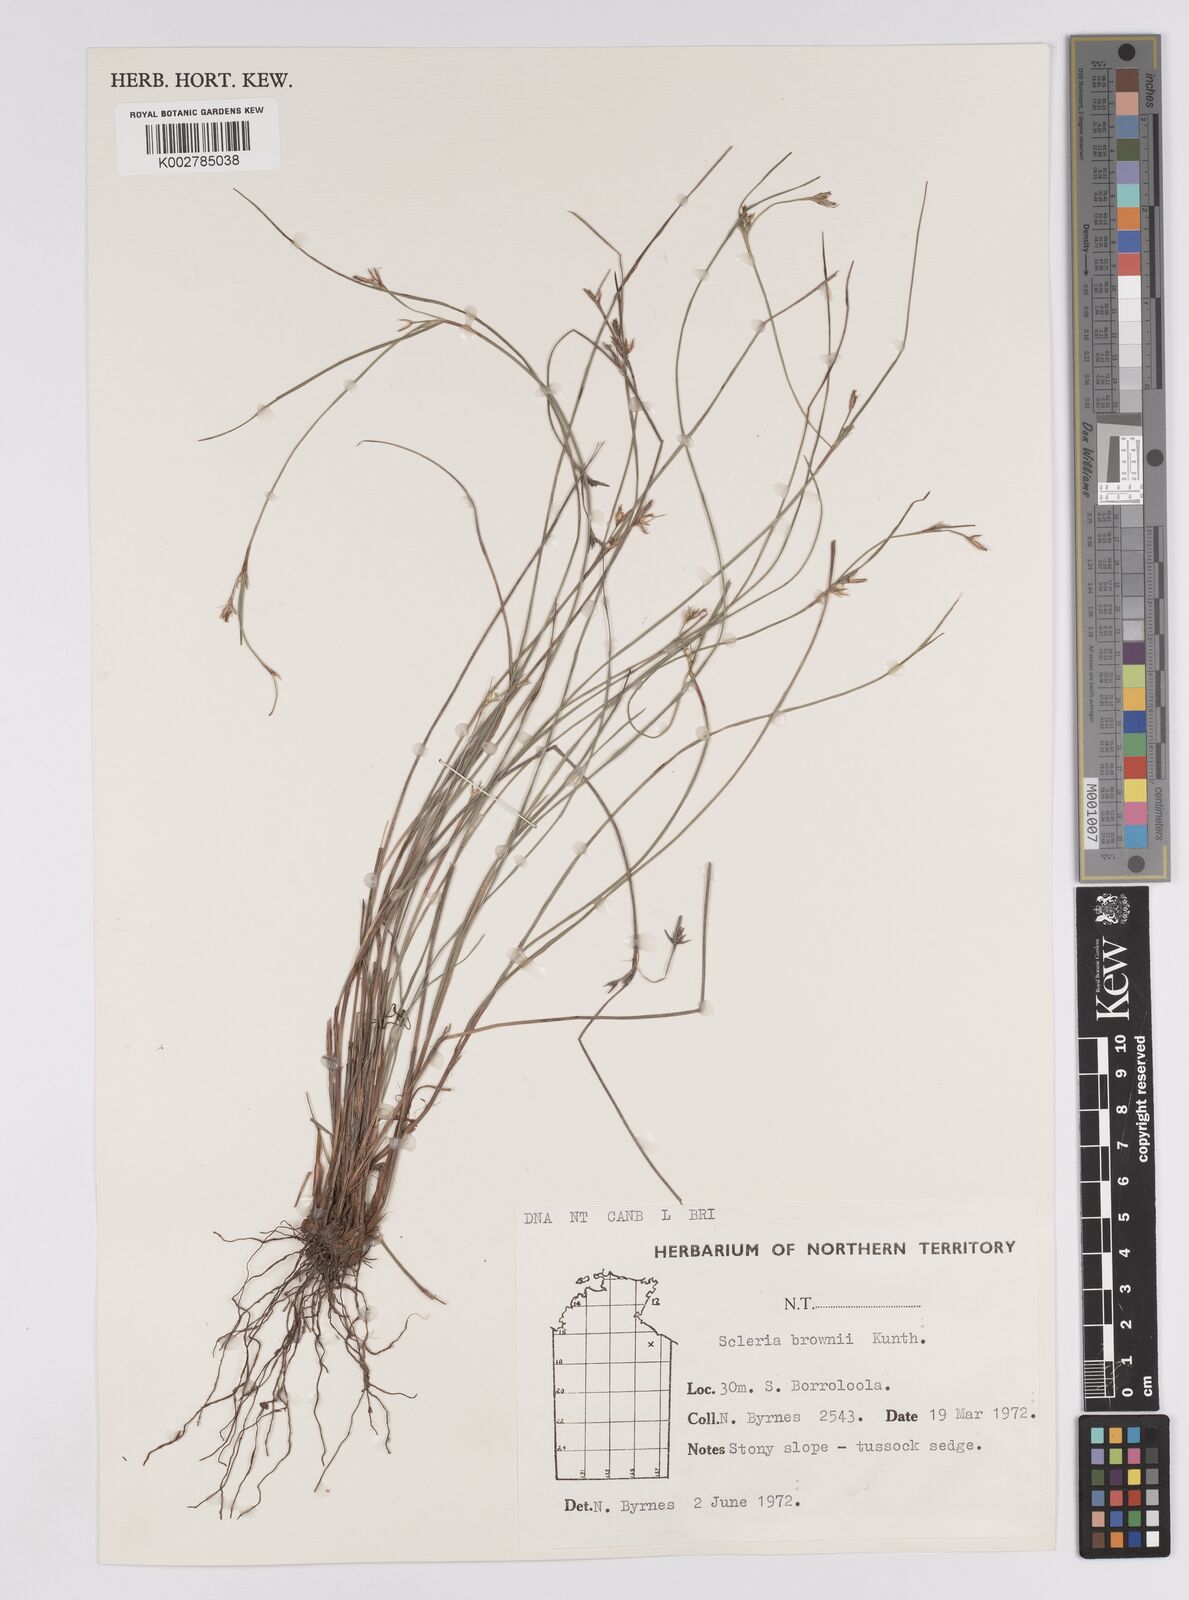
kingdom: Plantae
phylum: Tracheophyta
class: Liliopsida
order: Poales
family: Cyperaceae
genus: Scleria
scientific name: Scleria brownii
